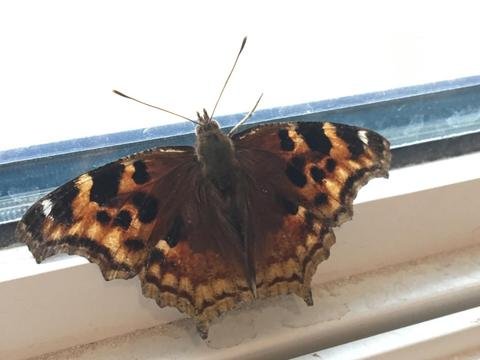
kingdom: Animalia
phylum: Arthropoda
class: Insecta
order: Lepidoptera
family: Nymphalidae
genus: Polygonia
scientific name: Polygonia vaualbum
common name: Compton Tortoiseshell
